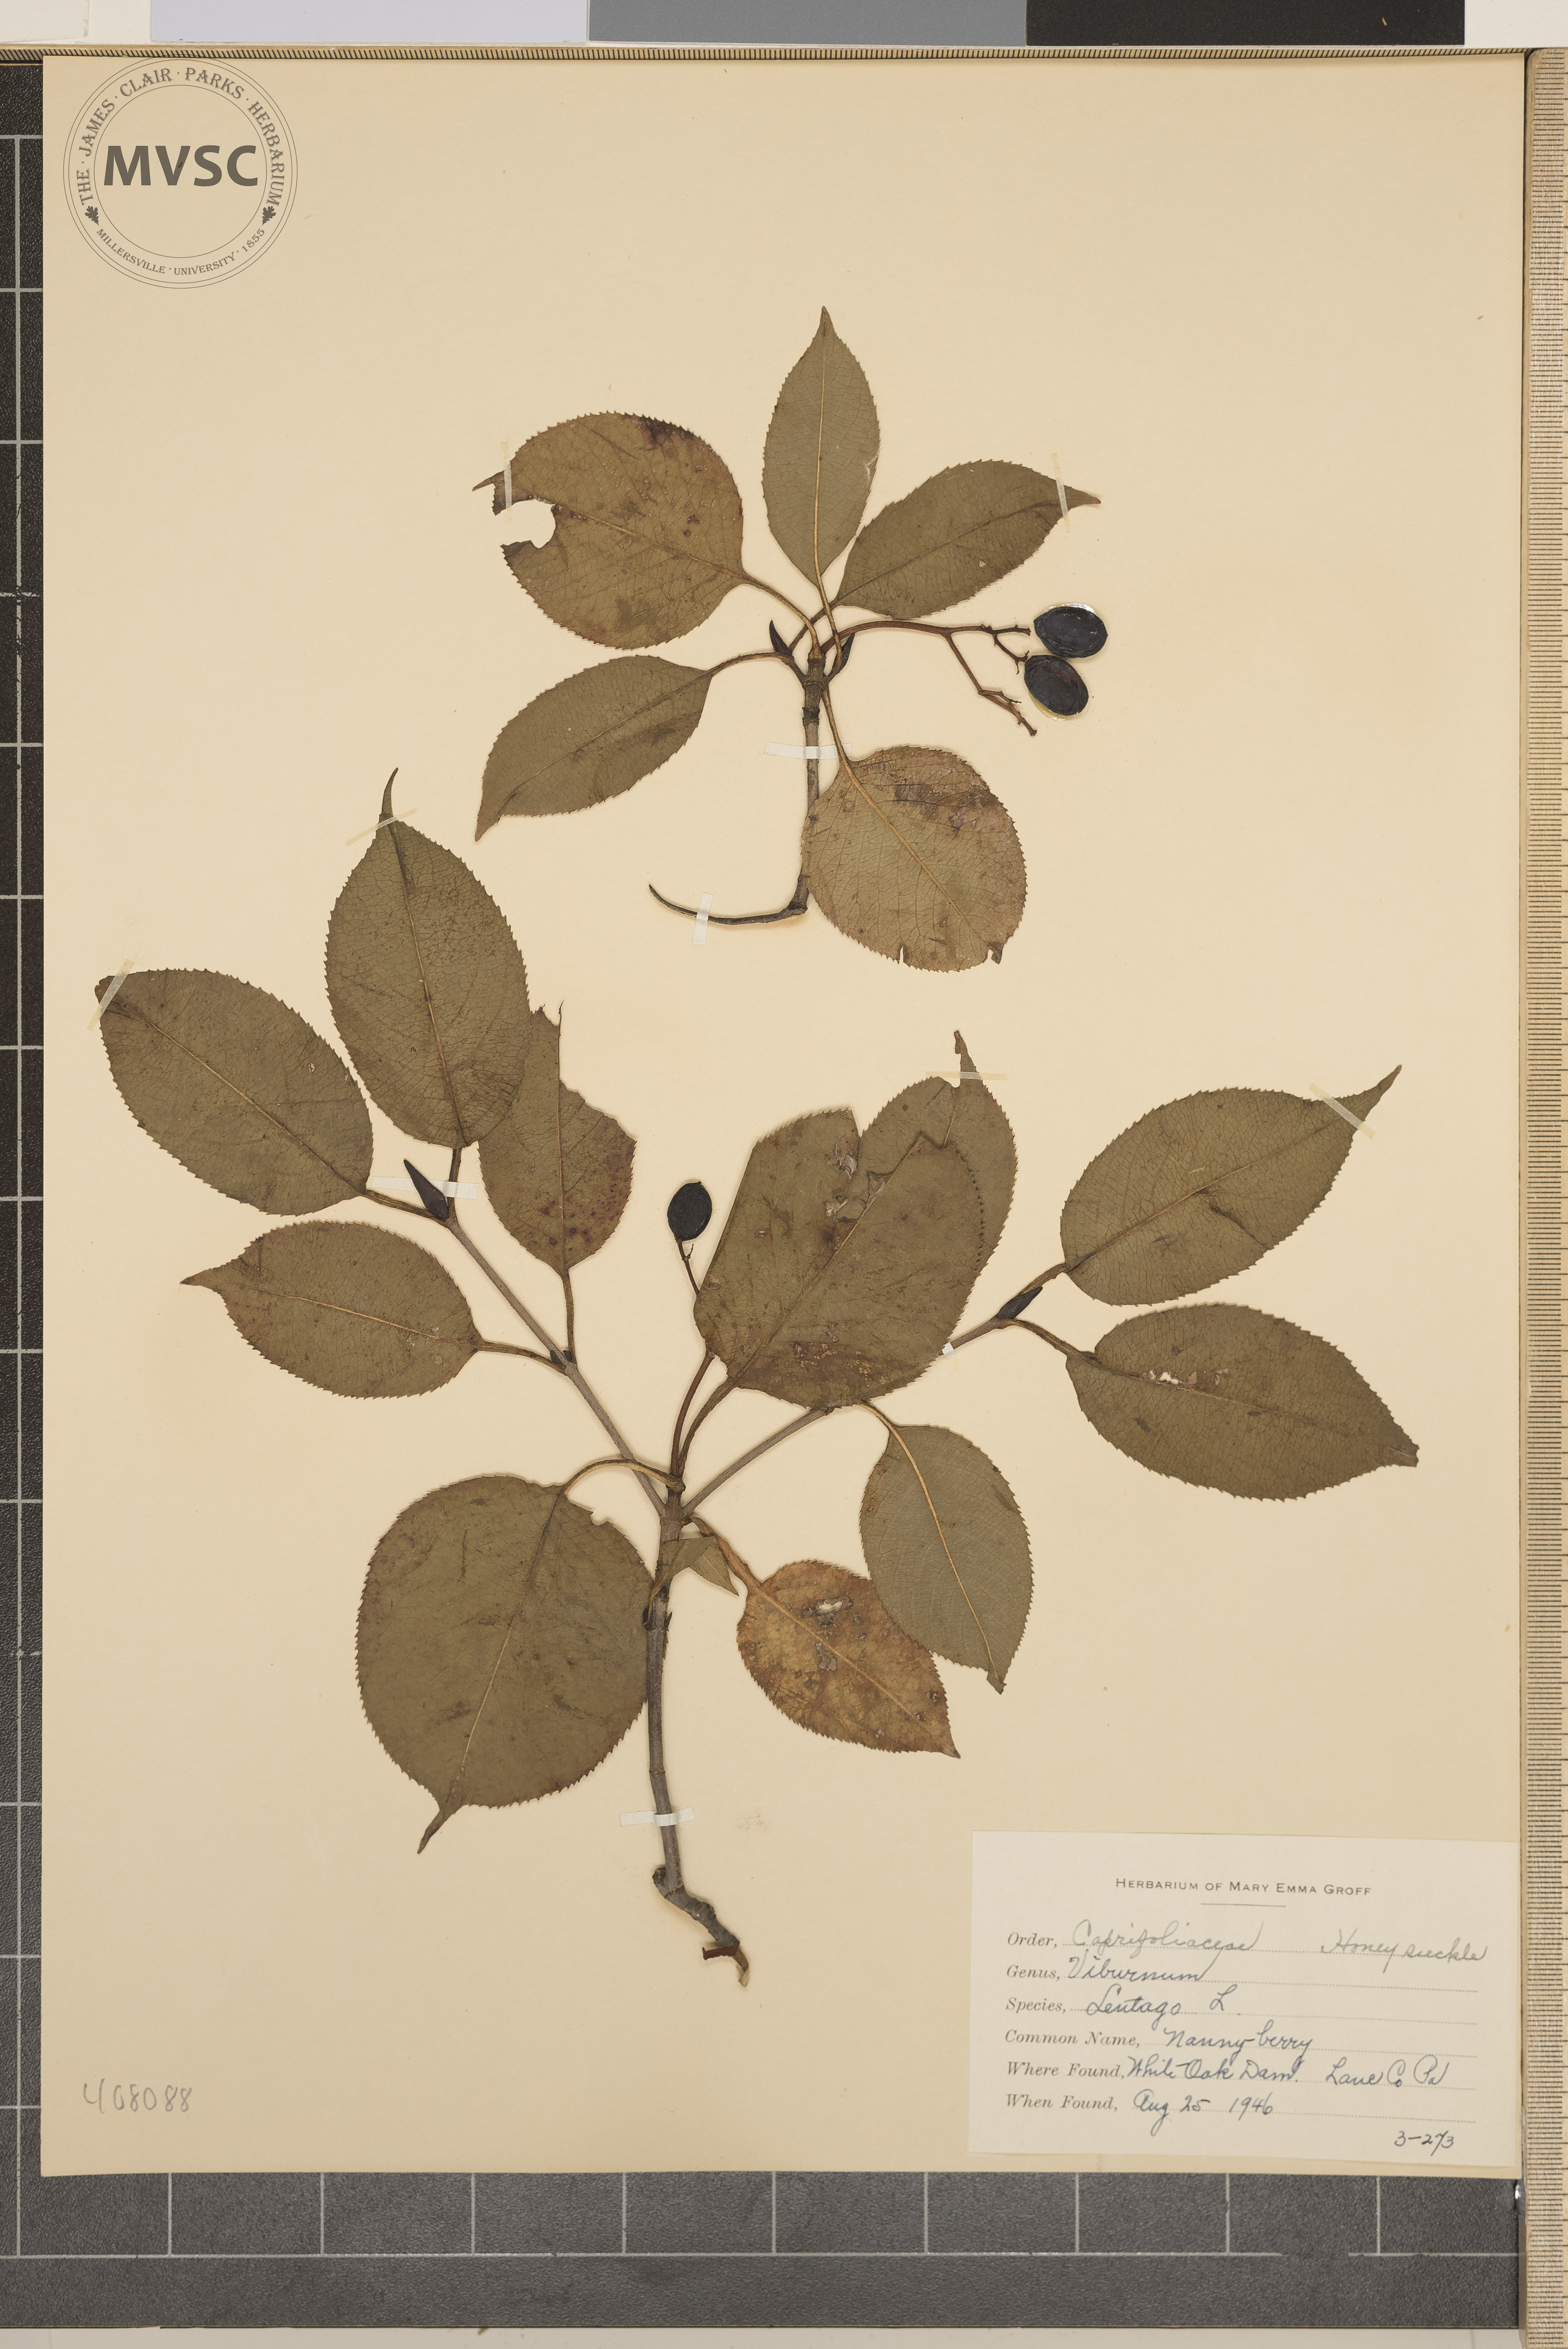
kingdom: Plantae
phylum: Tracheophyta
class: Magnoliopsida
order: Dipsacales
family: Viburnaceae
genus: Viburnum
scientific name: Viburnum lentago
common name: Nanny-berry
